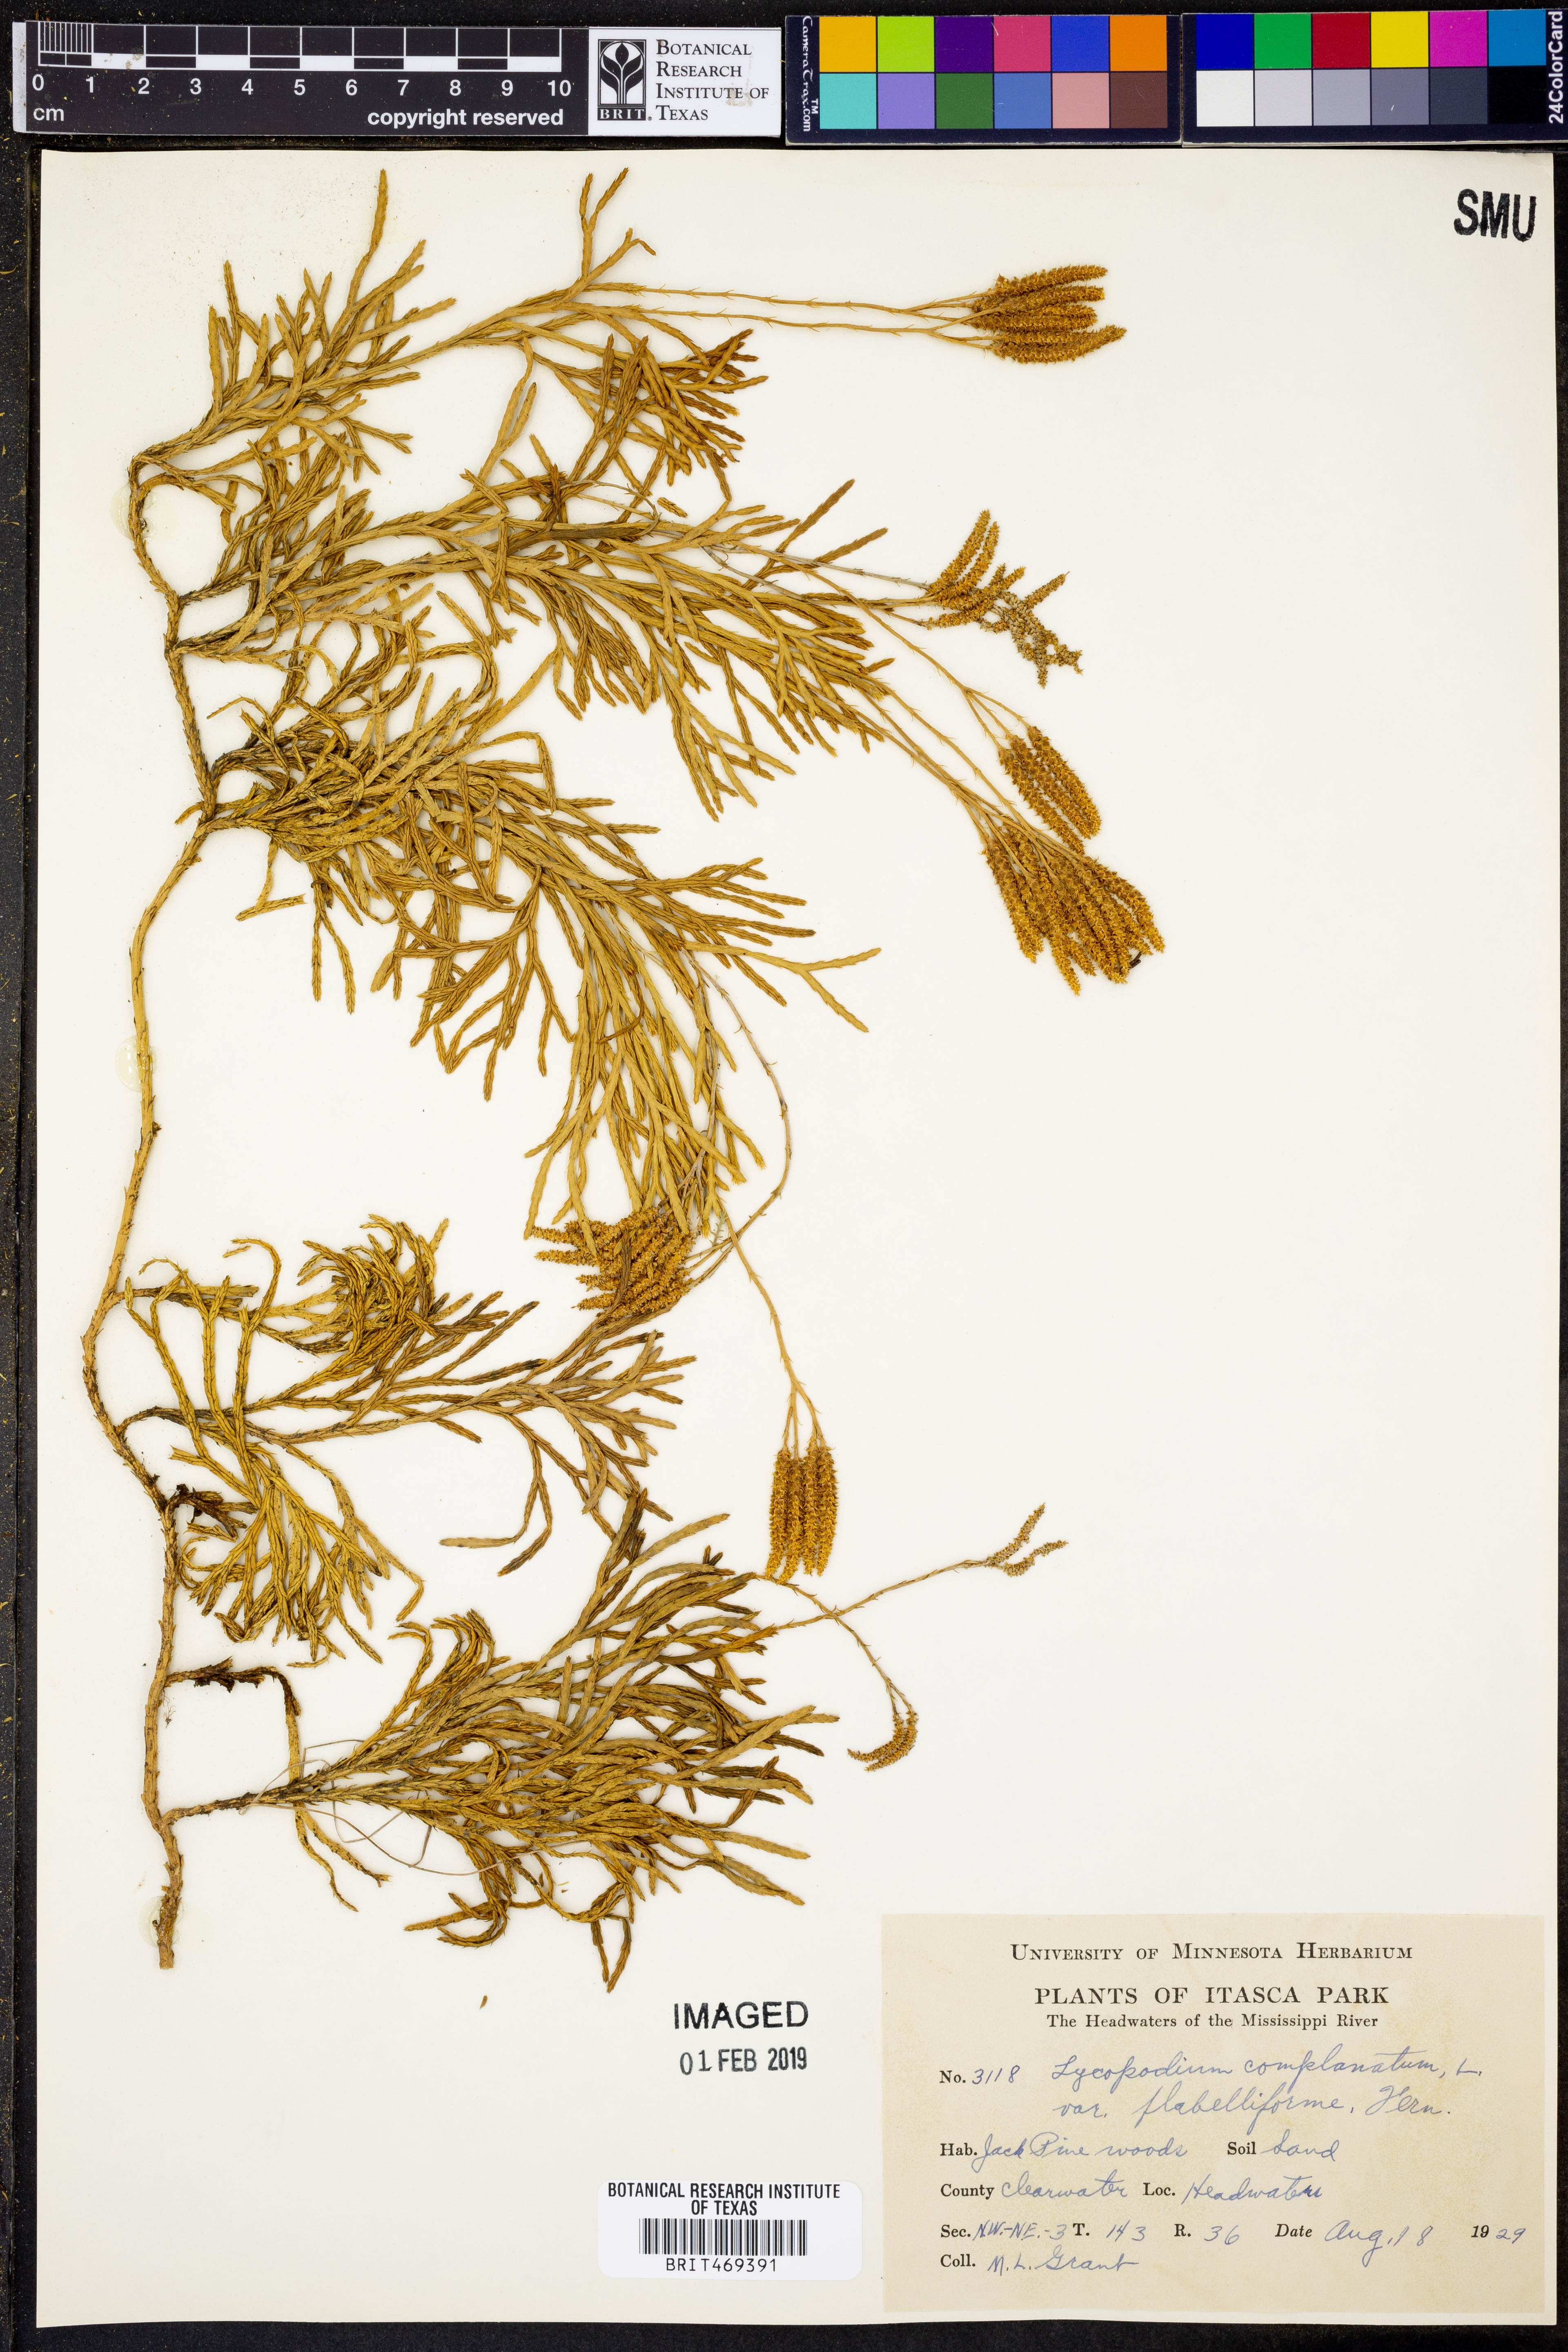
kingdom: Plantae
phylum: Tracheophyta
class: Lycopodiopsida
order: Lycopodiales
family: Lycopodiaceae
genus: Diphasiastrum
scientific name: Diphasiastrum digitatum
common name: Southern running-pine
